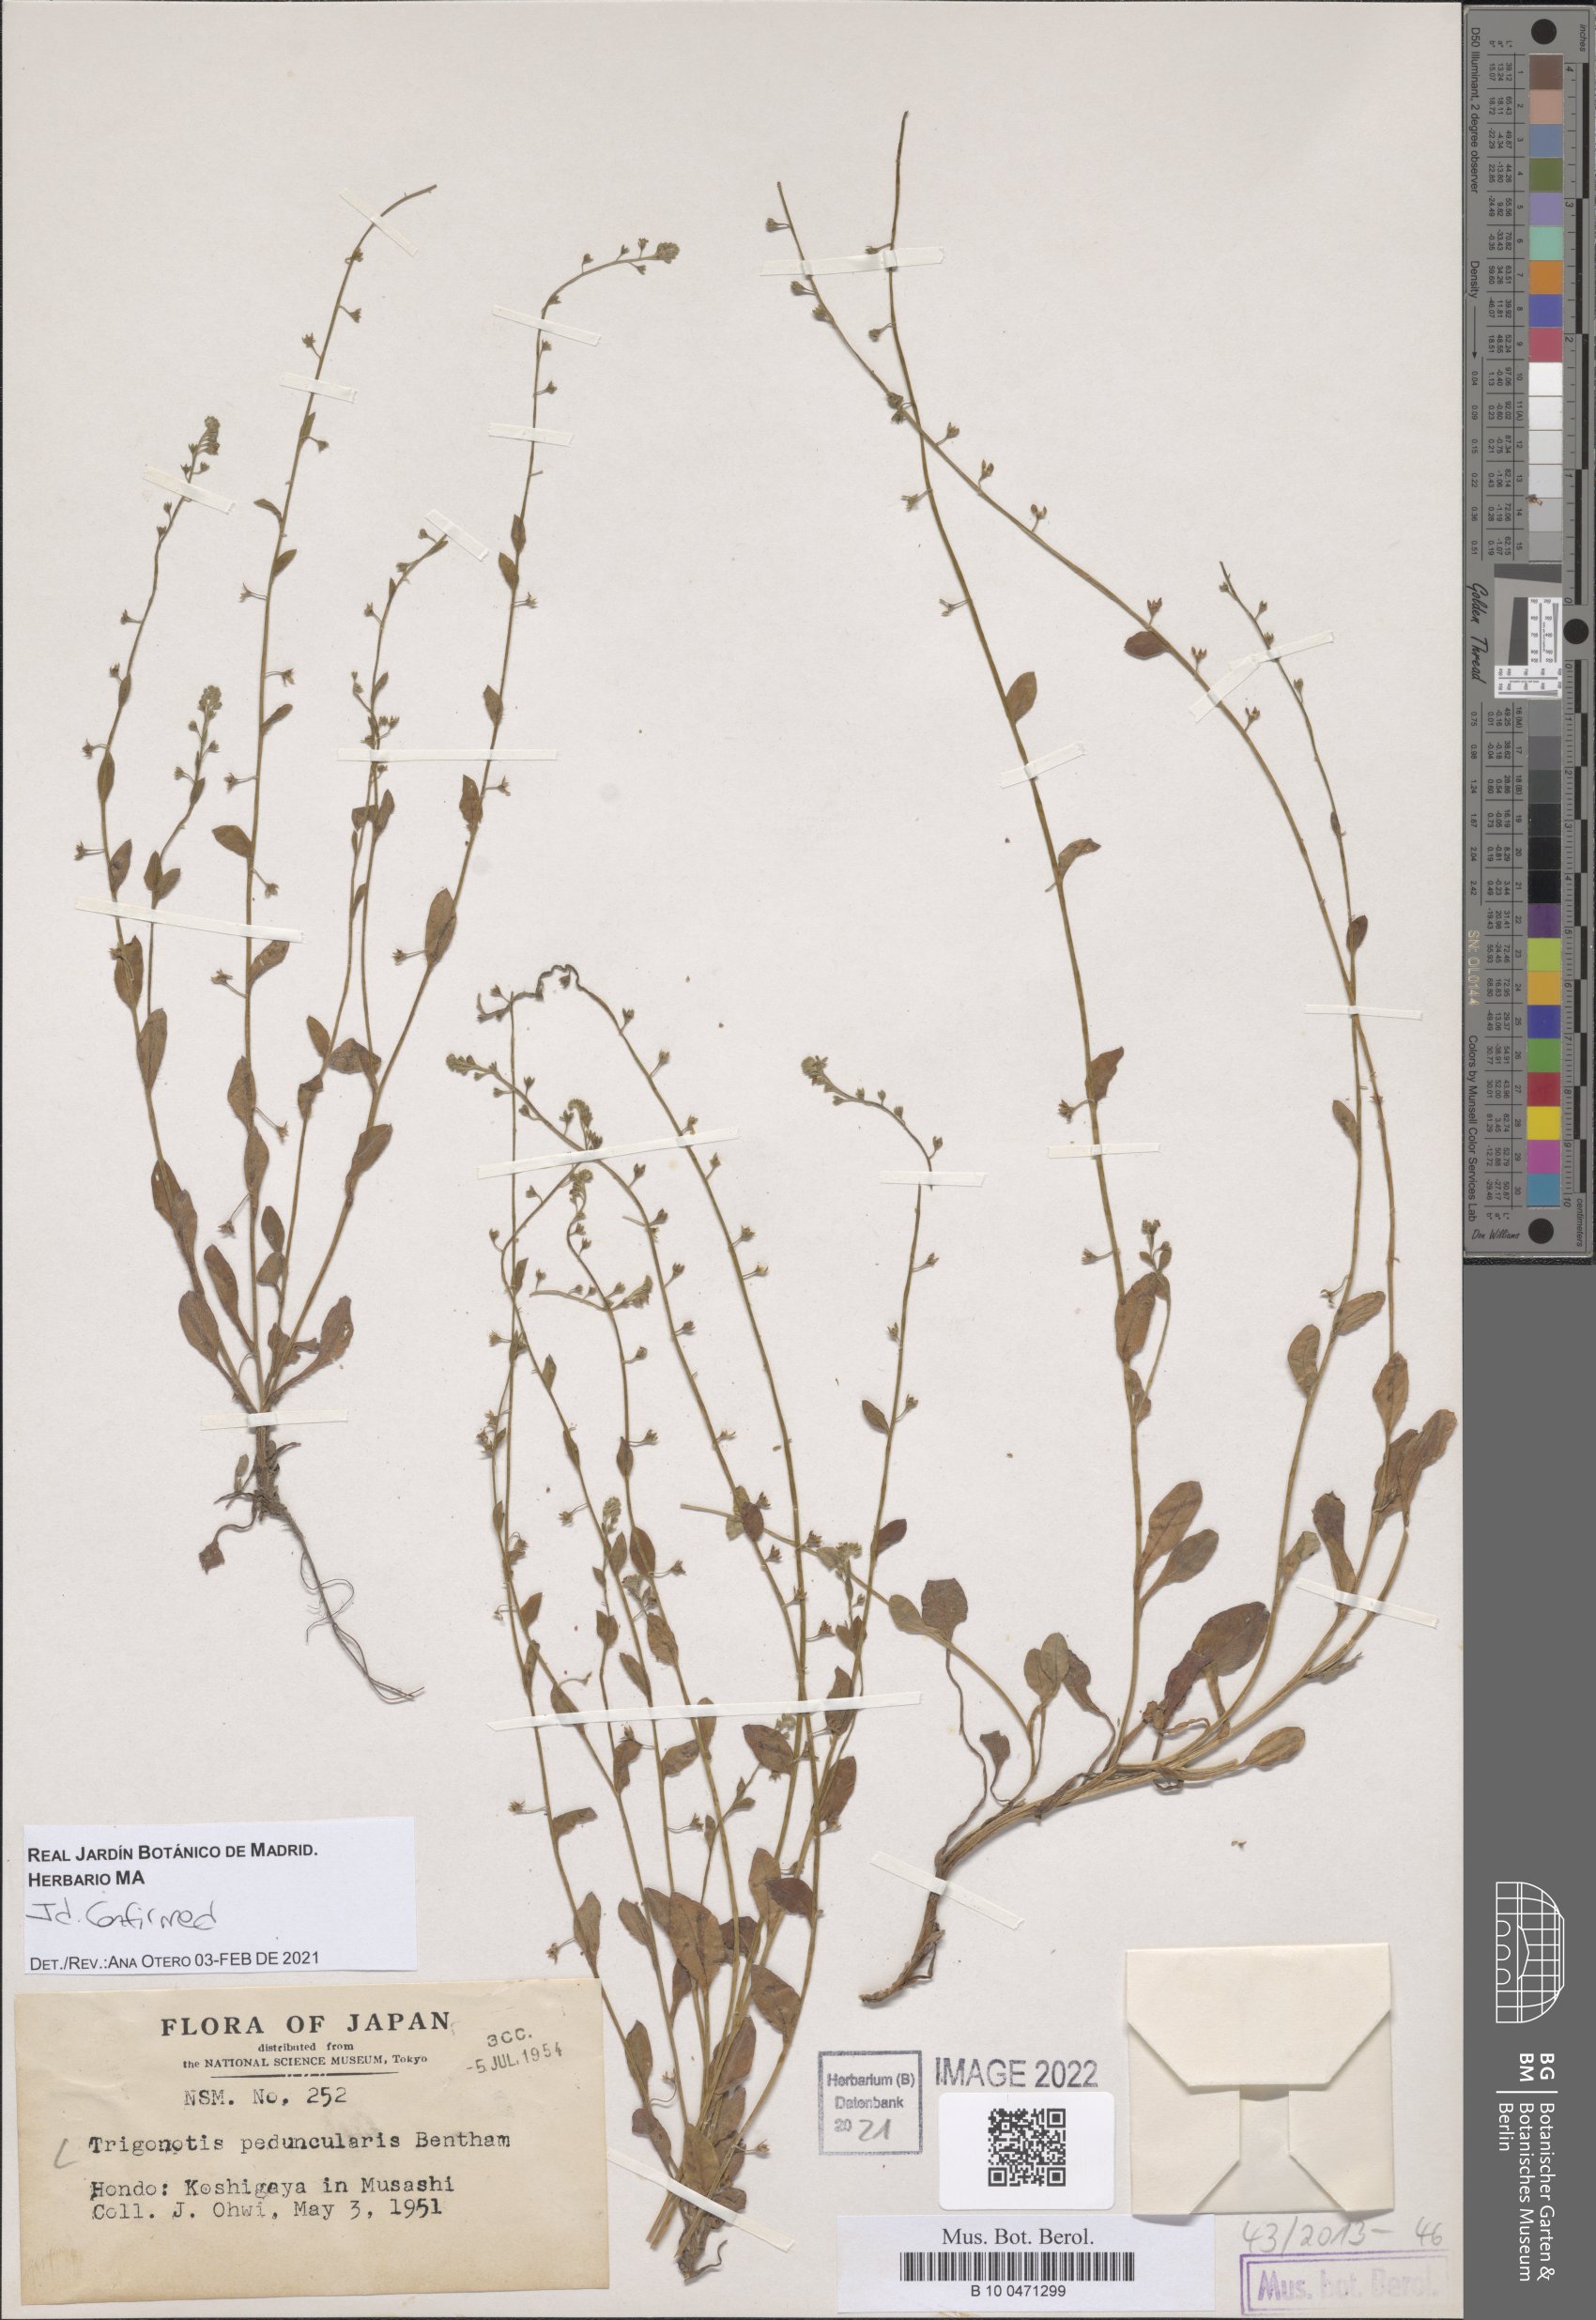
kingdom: Plantae
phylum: Tracheophyta
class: Magnoliopsida
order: Boraginales
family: Boraginaceae
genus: Trigonotis
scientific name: Trigonotis peduncularis
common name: Cucumber herb
